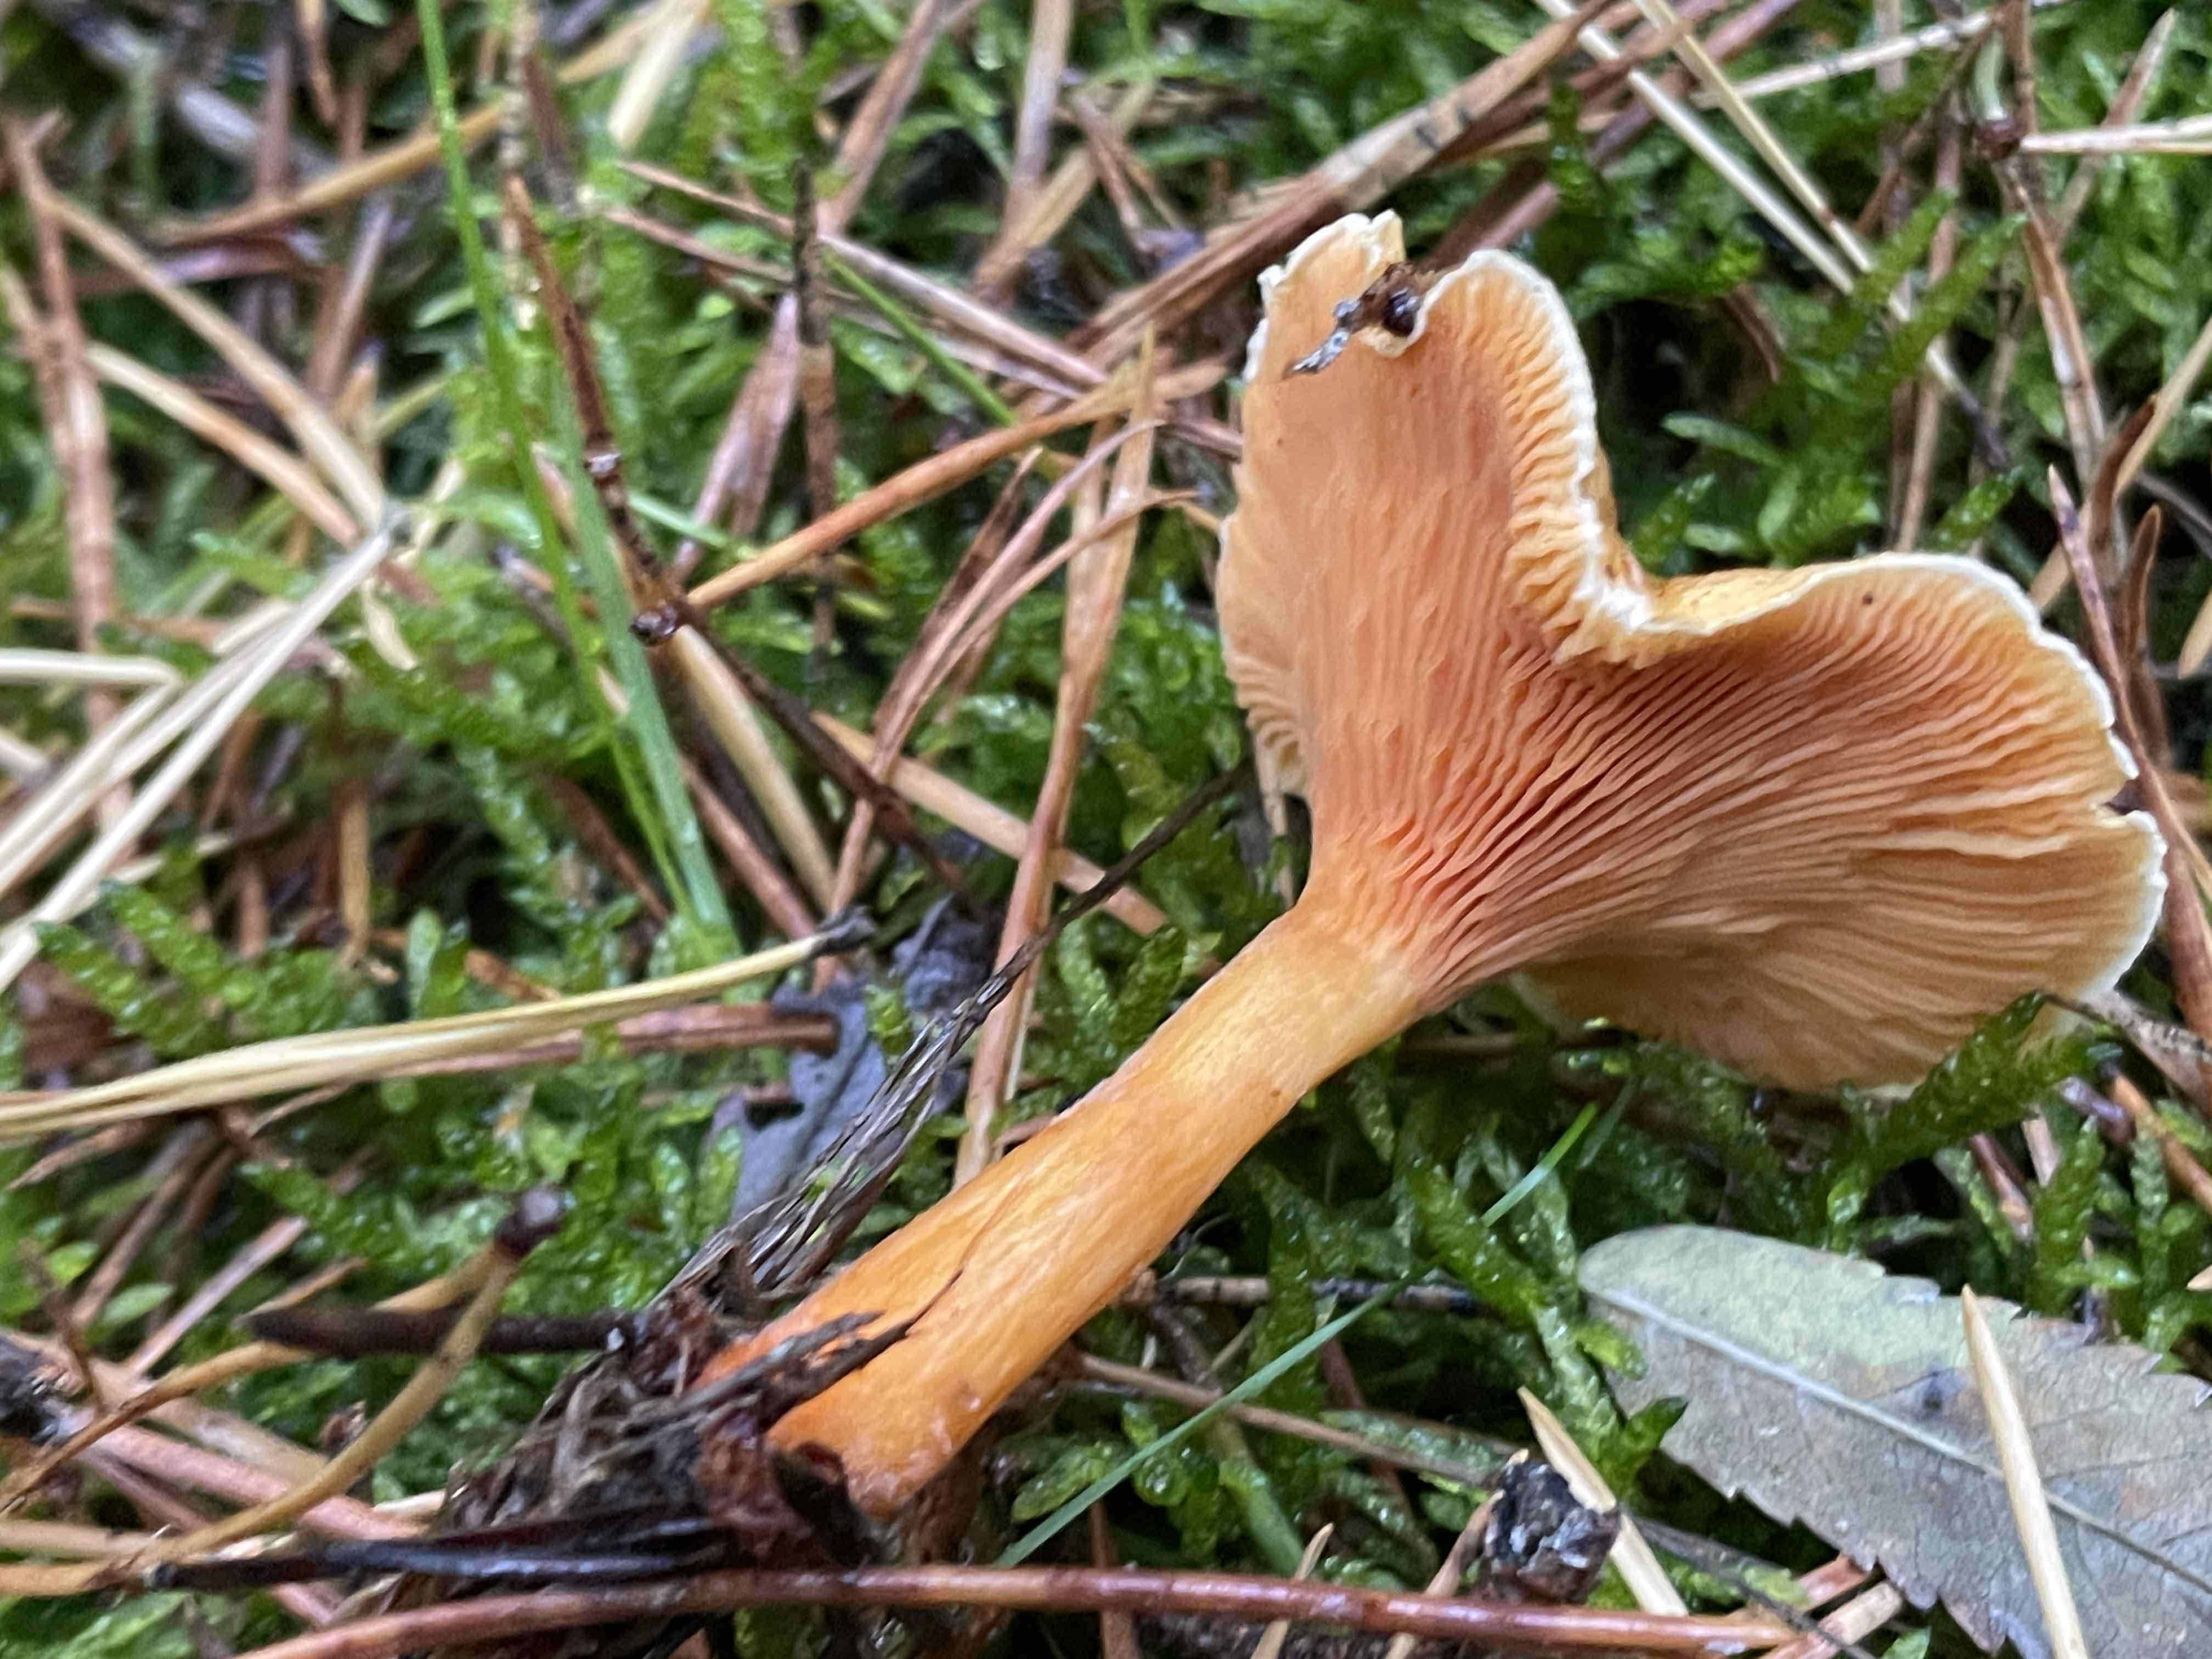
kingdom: Fungi
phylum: Basidiomycota
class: Agaricomycetes
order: Boletales
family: Hygrophoropsidaceae
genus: Hygrophoropsis
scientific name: Hygrophoropsis rufa
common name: brunfiltet orangekantarel
